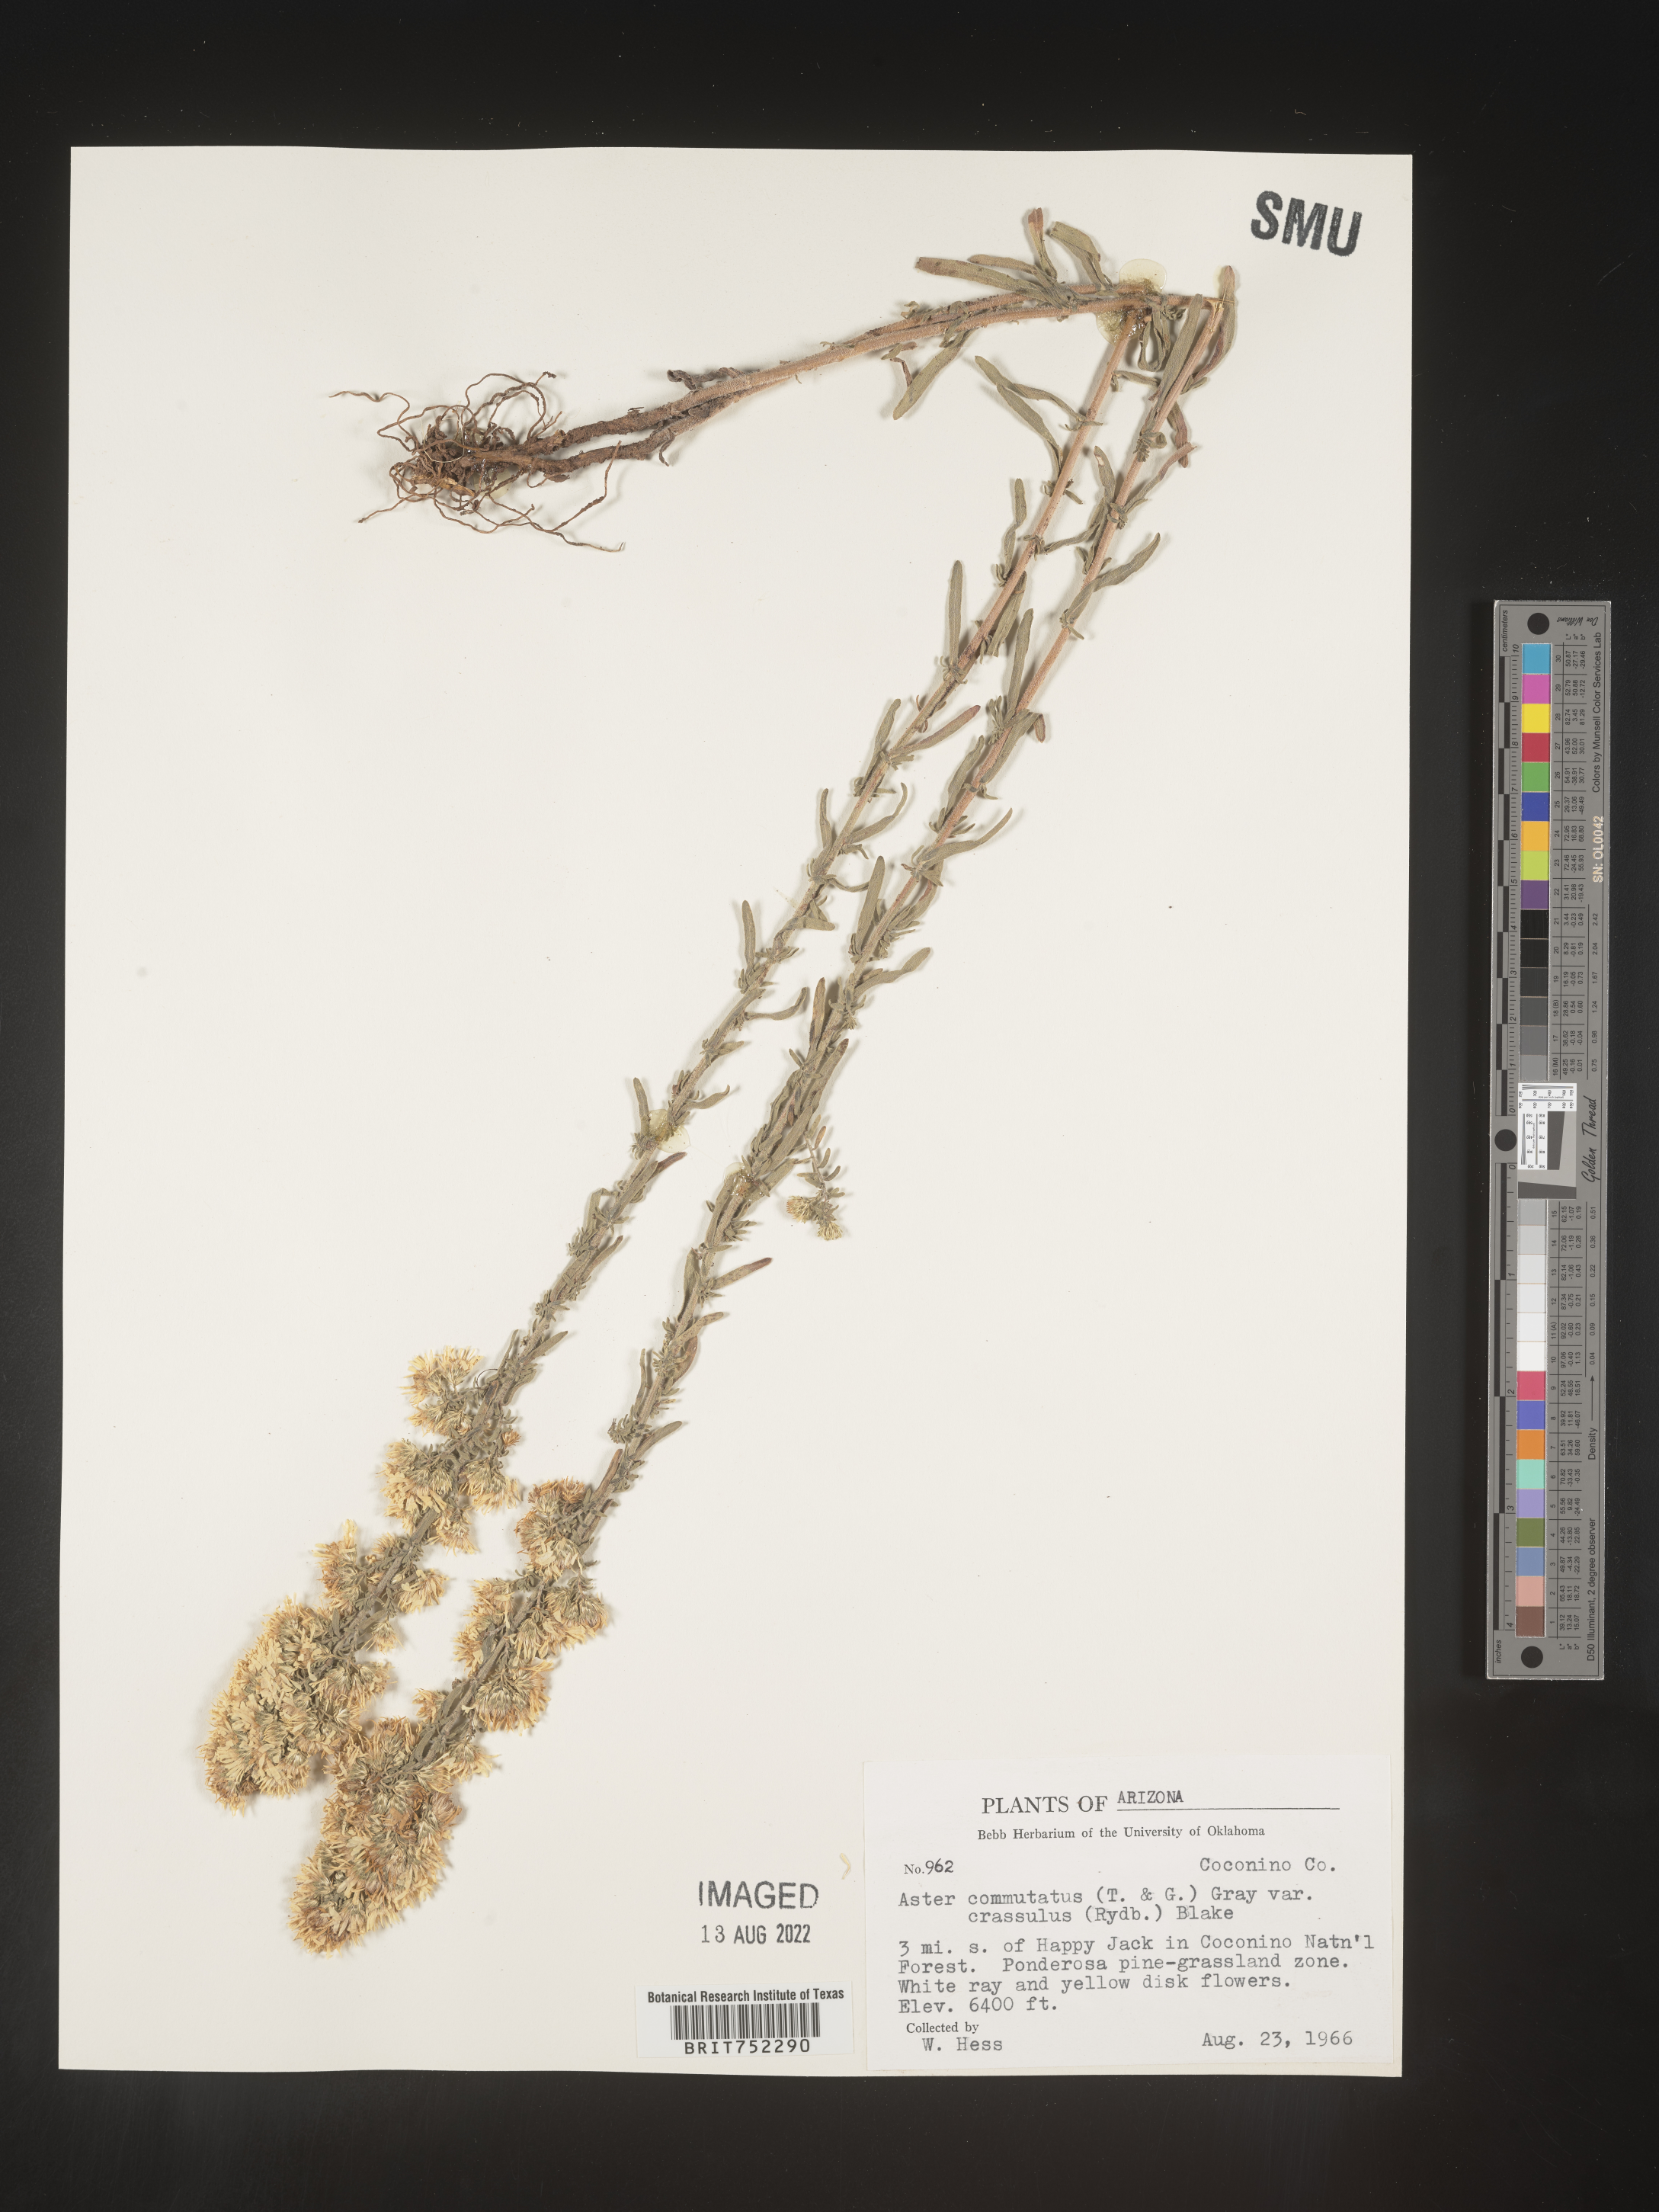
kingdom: Plantae
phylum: Tracheophyta
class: Magnoliopsida
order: Asterales
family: Asteraceae
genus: Symphyotrichum
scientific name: Symphyotrichum falcatum
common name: Creeping white prairie aster
